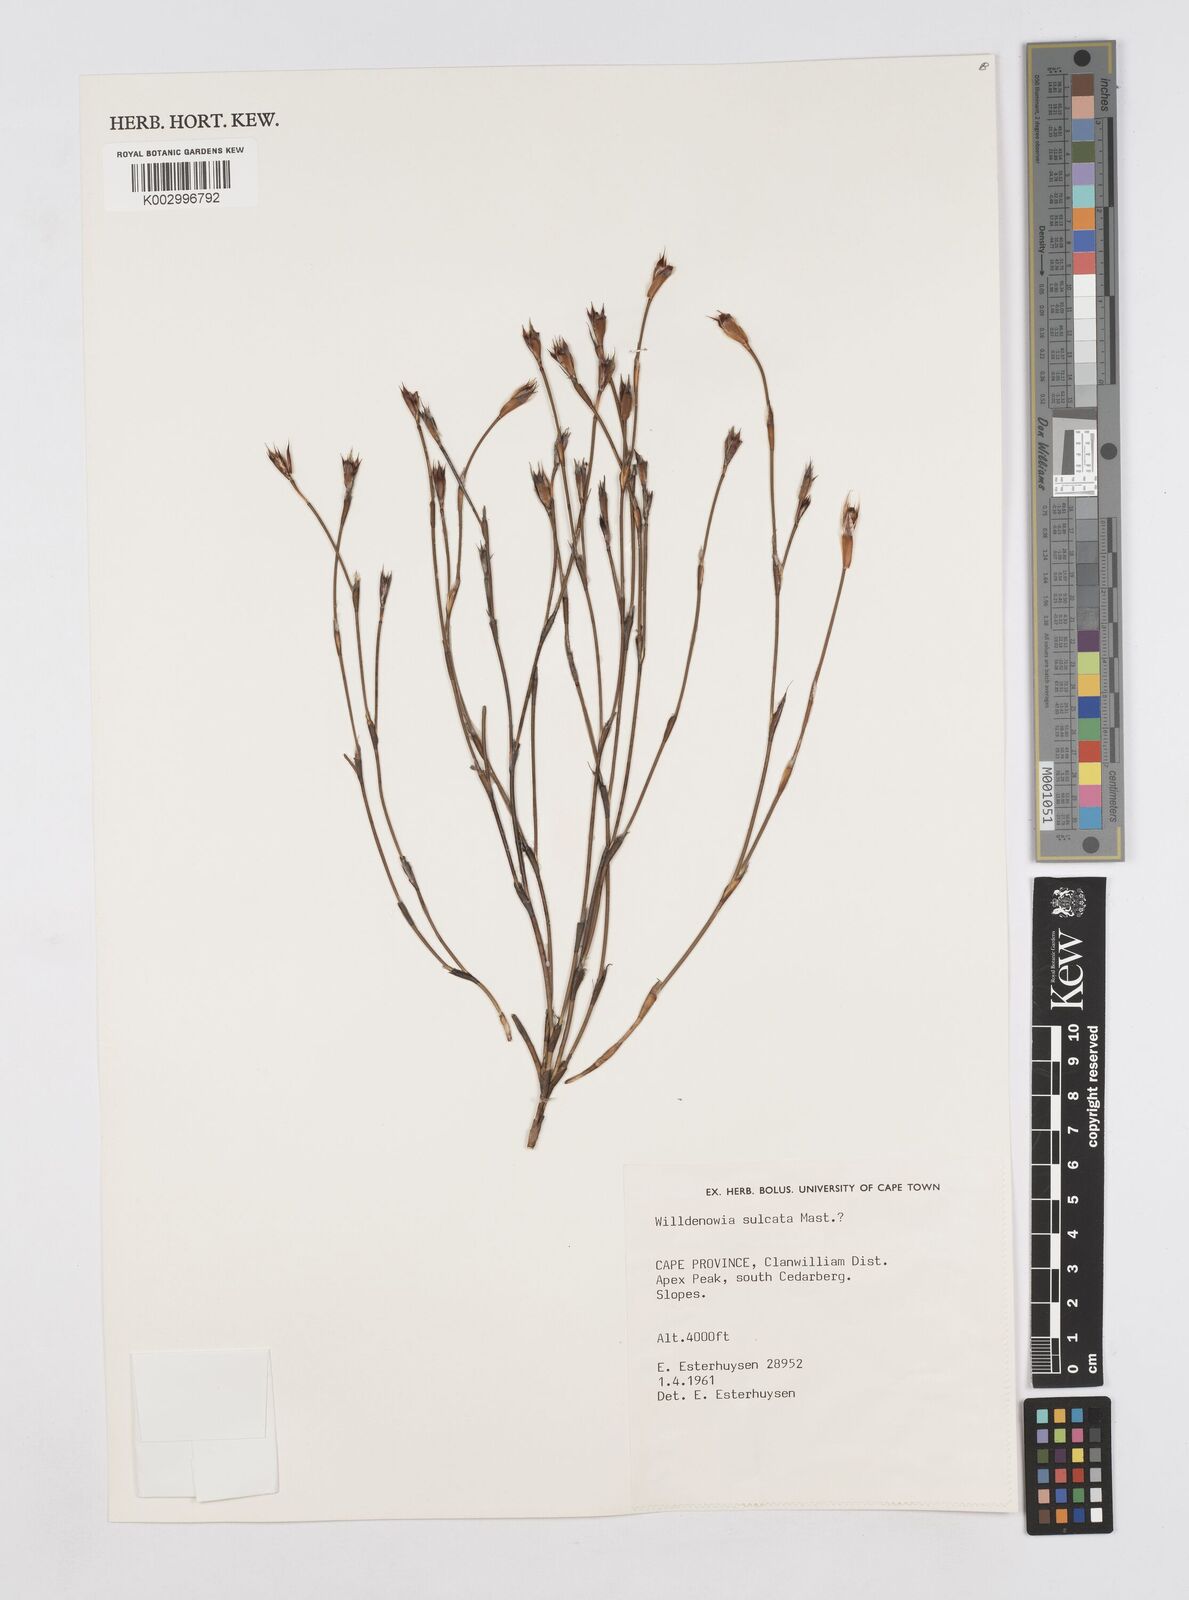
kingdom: Plantae
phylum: Tracheophyta
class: Liliopsida
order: Poales
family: Restionaceae
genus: Willdenowia
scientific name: Willdenowia sulcata
